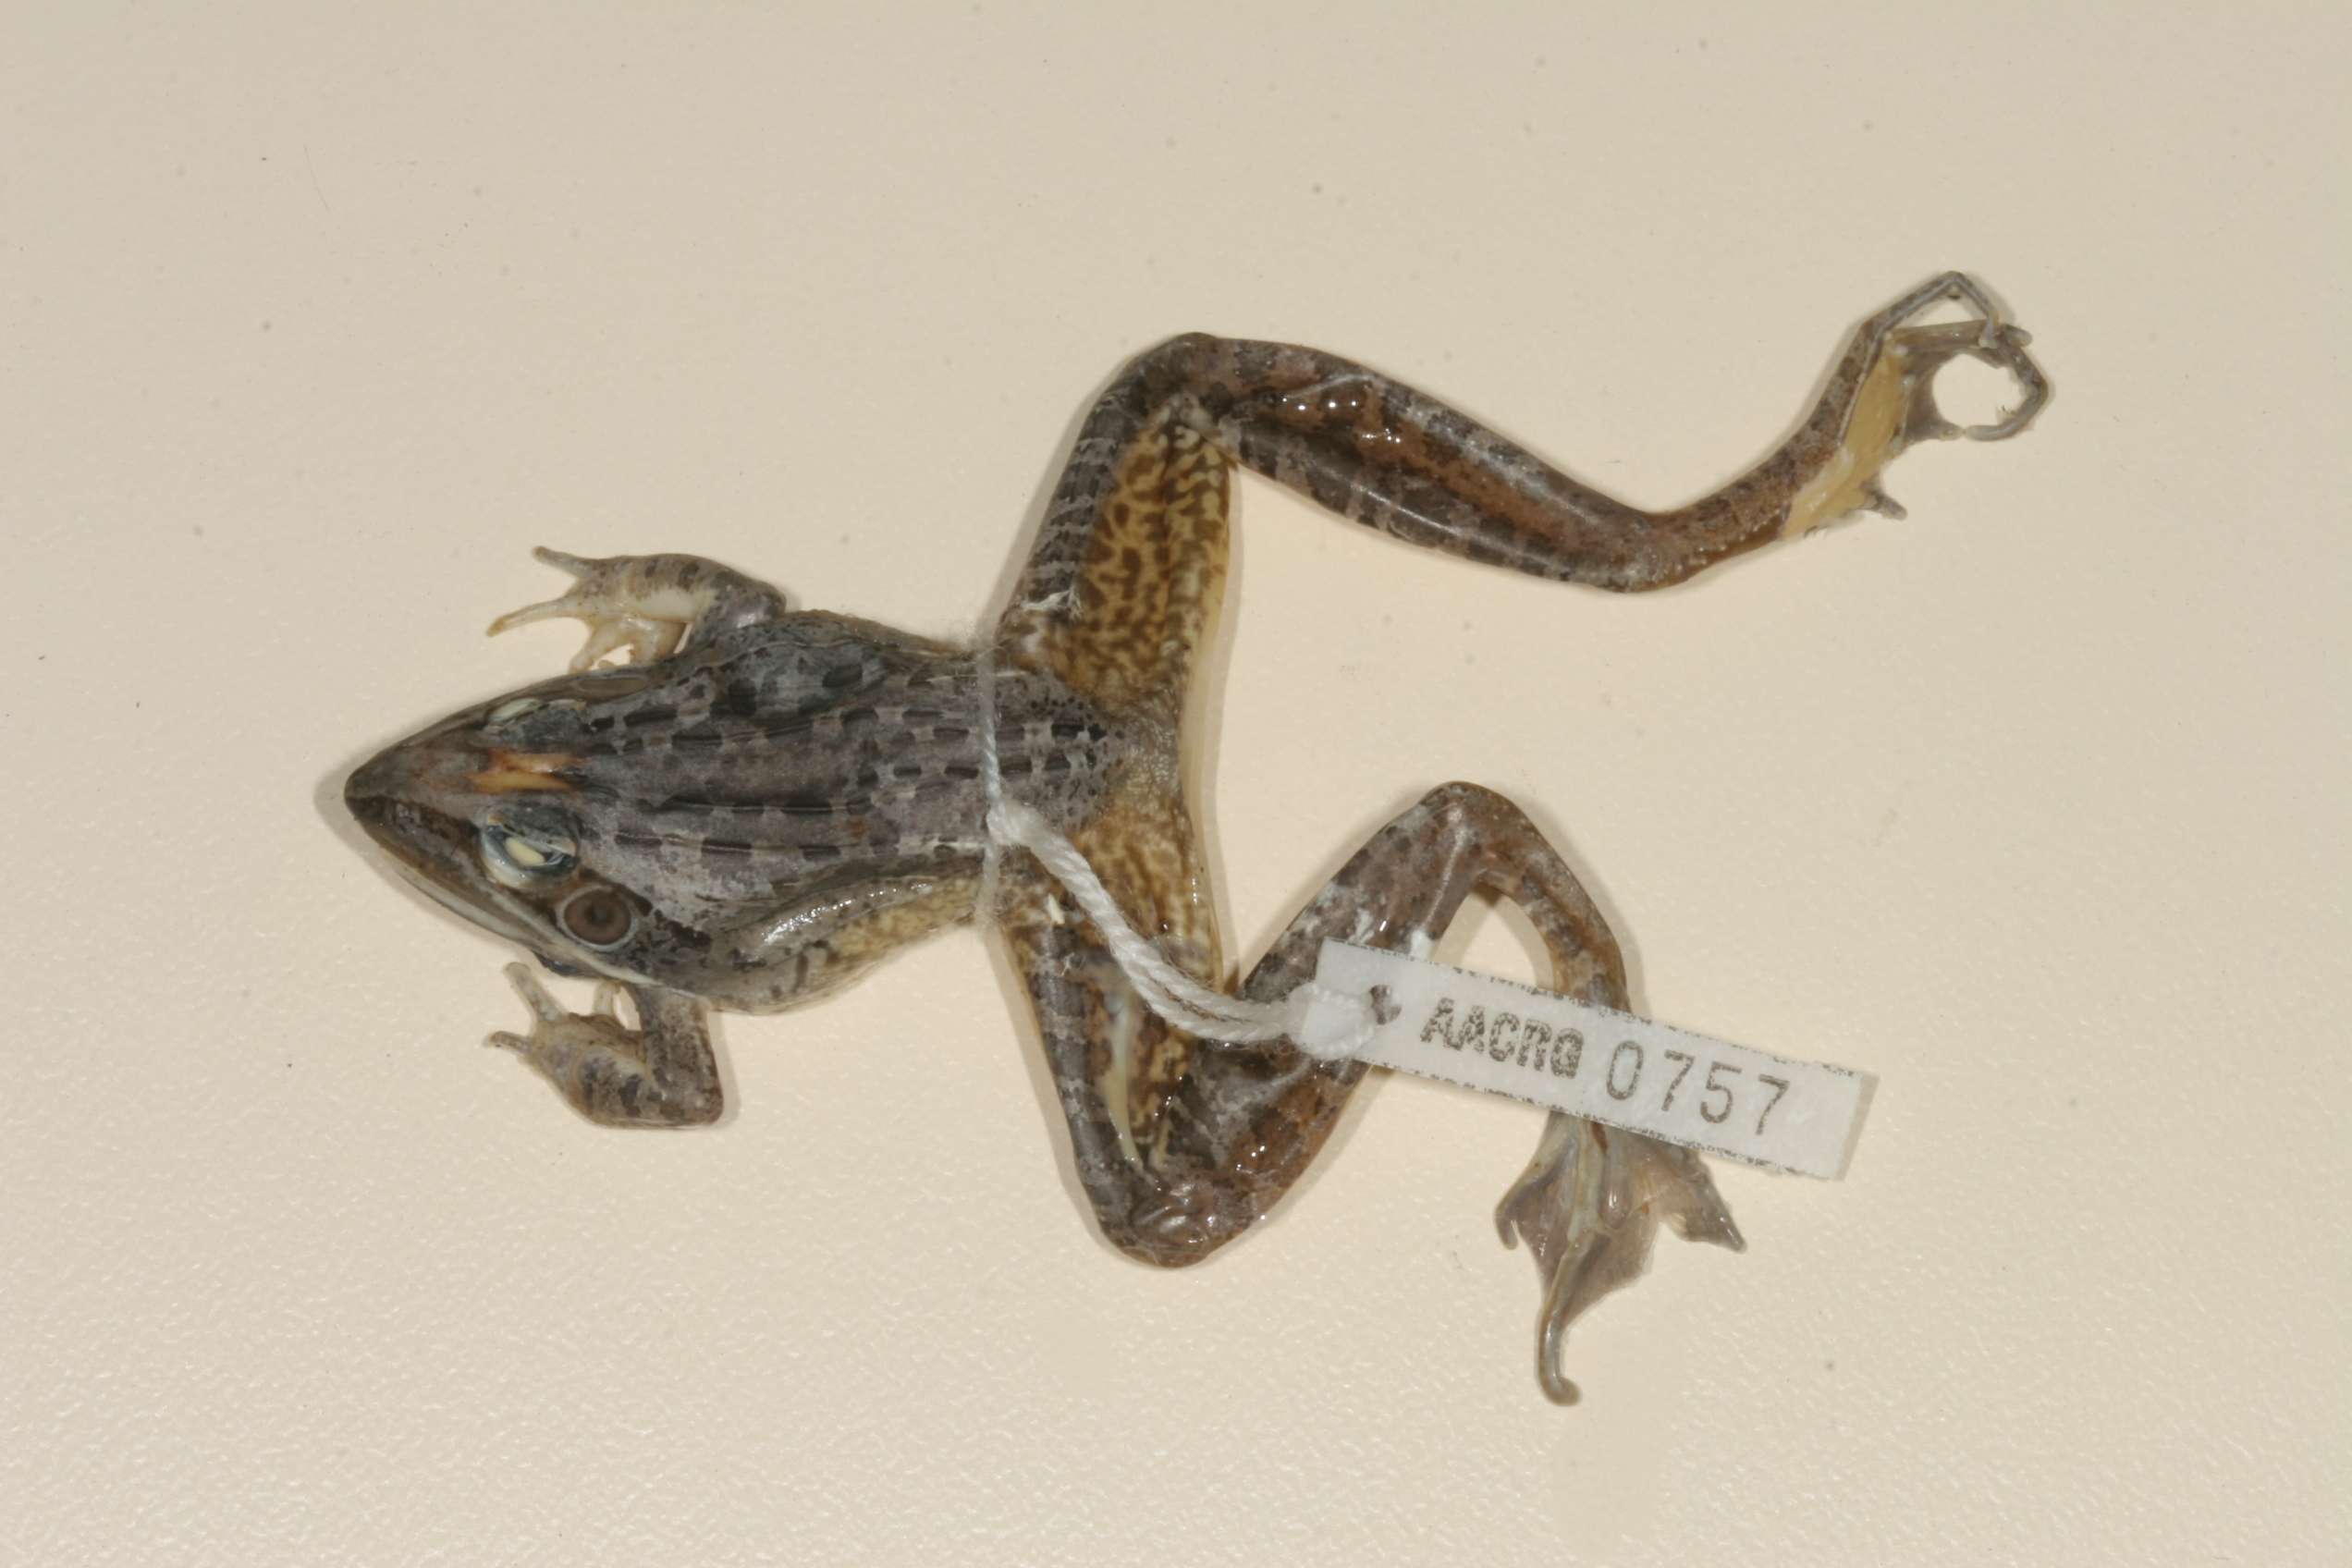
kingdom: Animalia
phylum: Chordata
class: Amphibia
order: Anura
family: Ptychadenidae
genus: Ptychadena
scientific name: Ptychadena oxyrhynchus
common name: Sharp-nosed ridged frog
